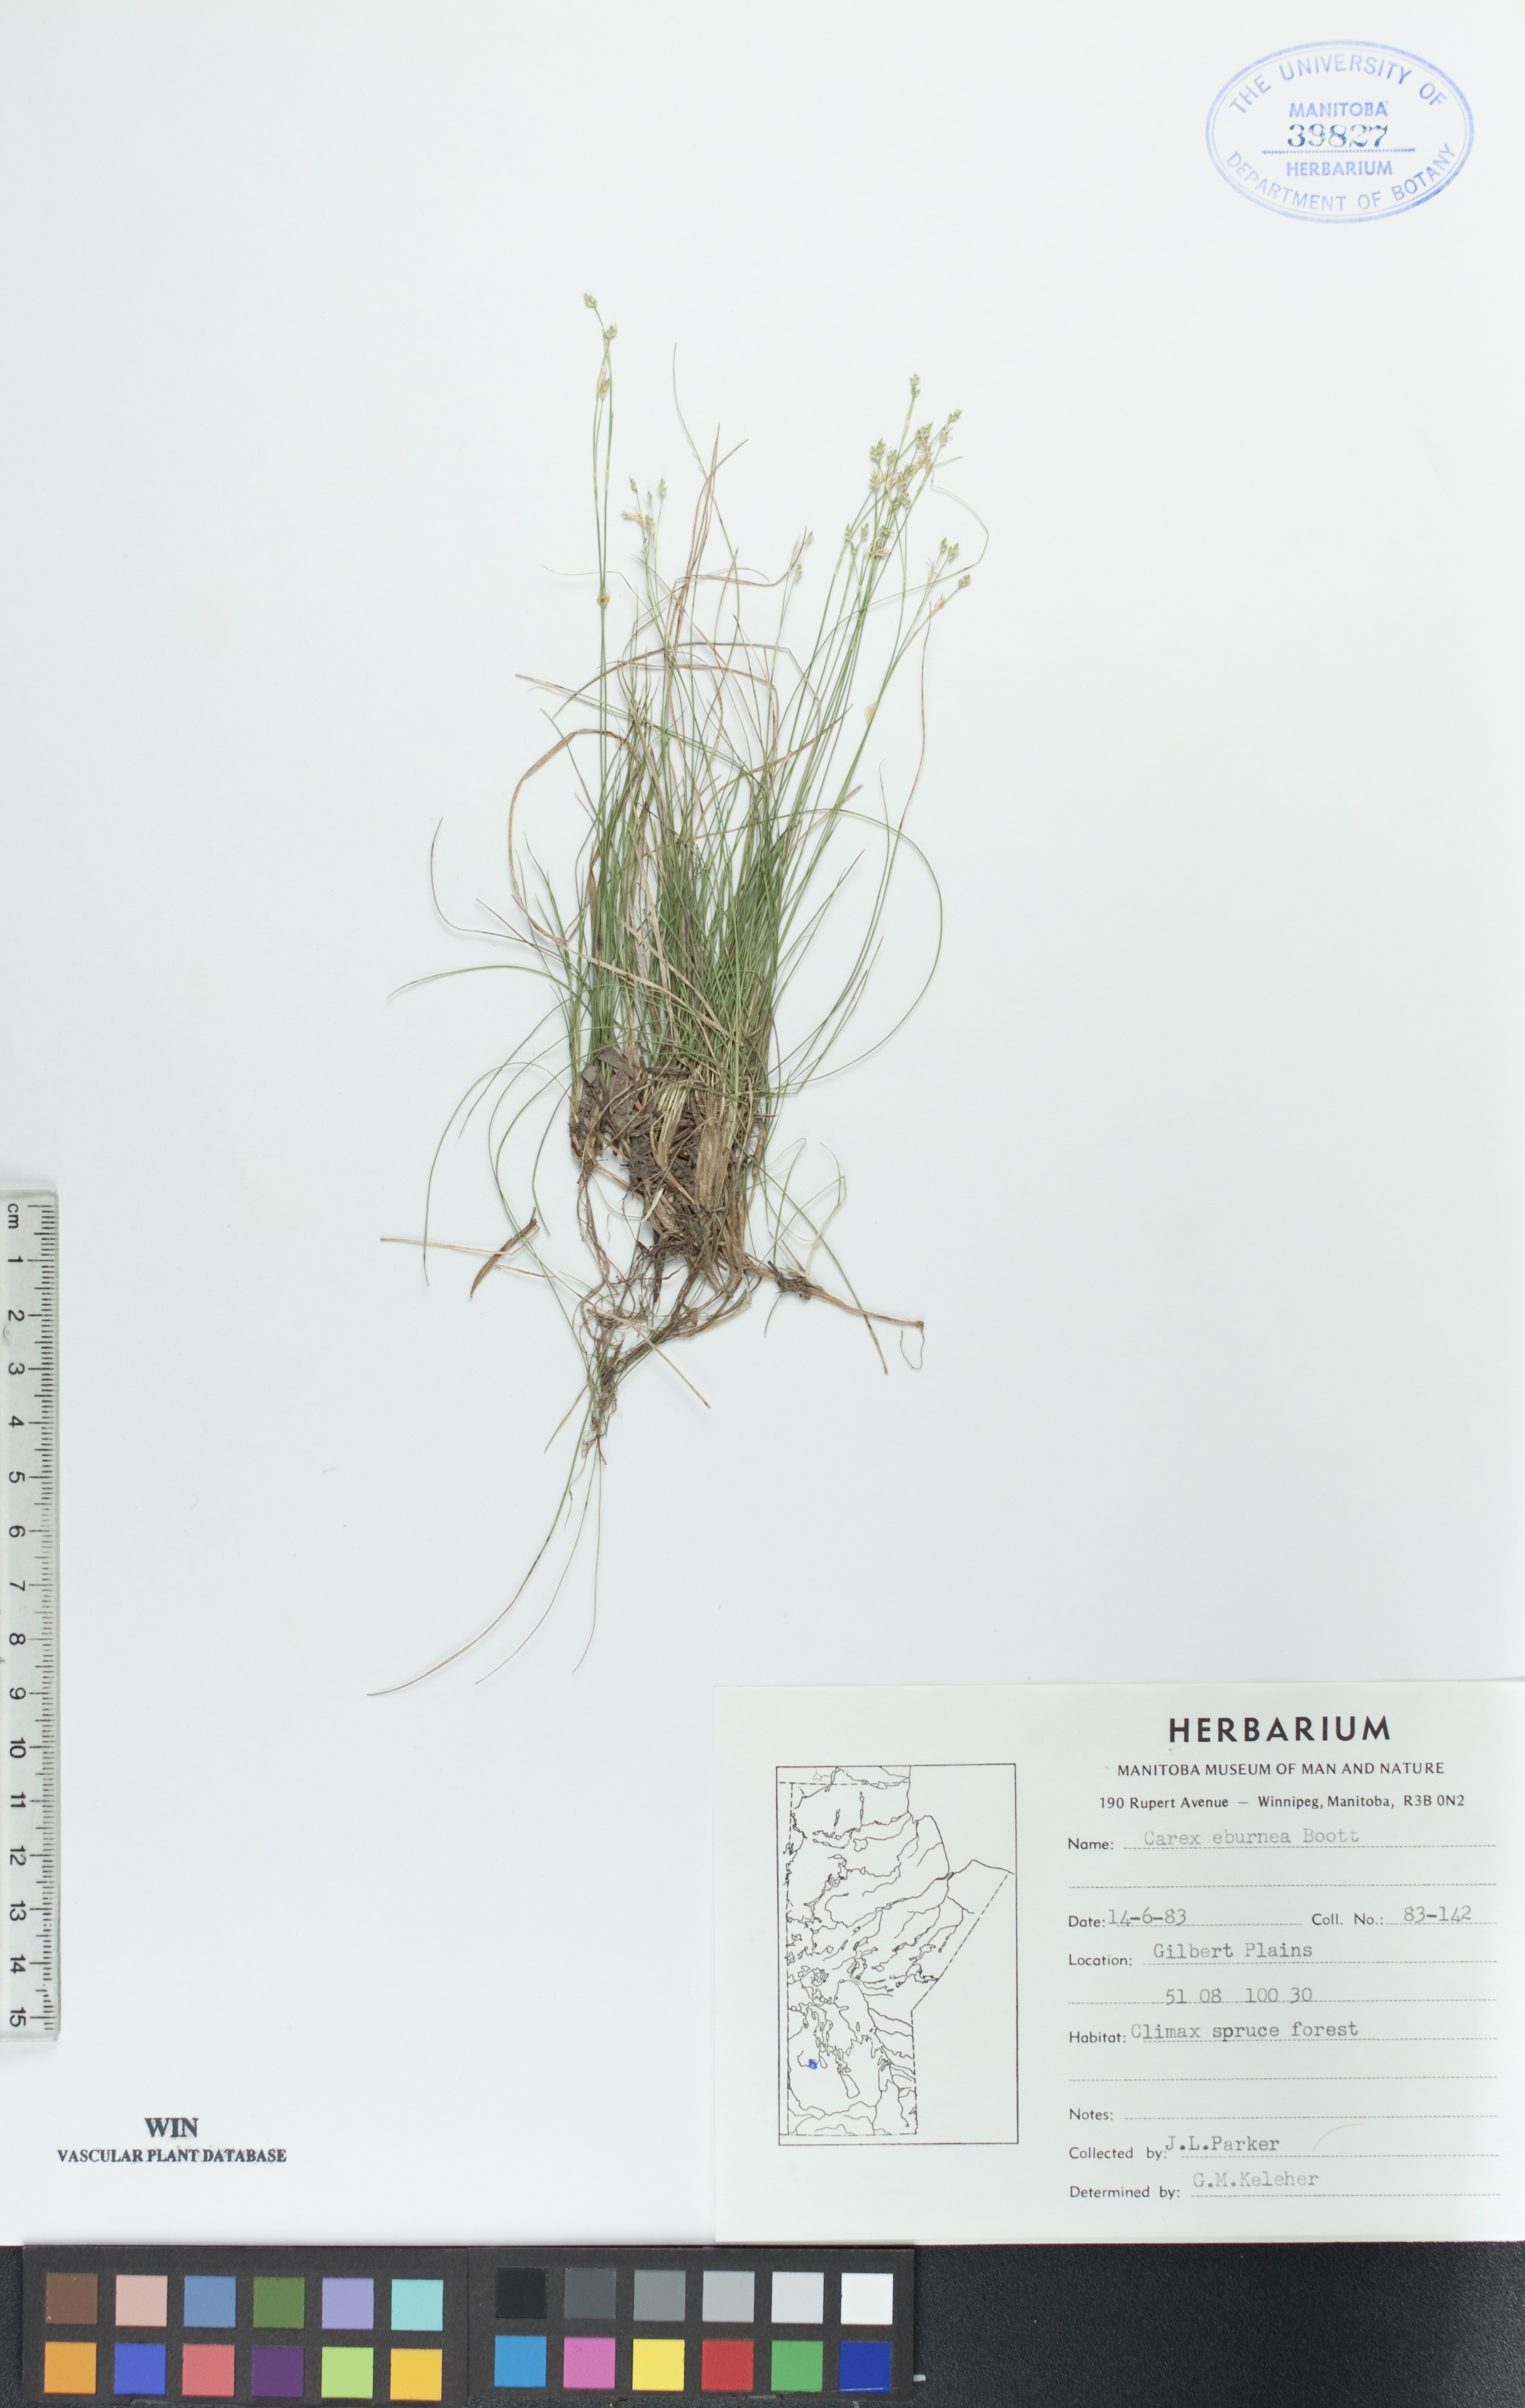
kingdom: Plantae
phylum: Tracheophyta
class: Liliopsida
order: Poales
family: Cyperaceae
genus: Carex
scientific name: Carex eburnea
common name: Bristle-leaved sedge
